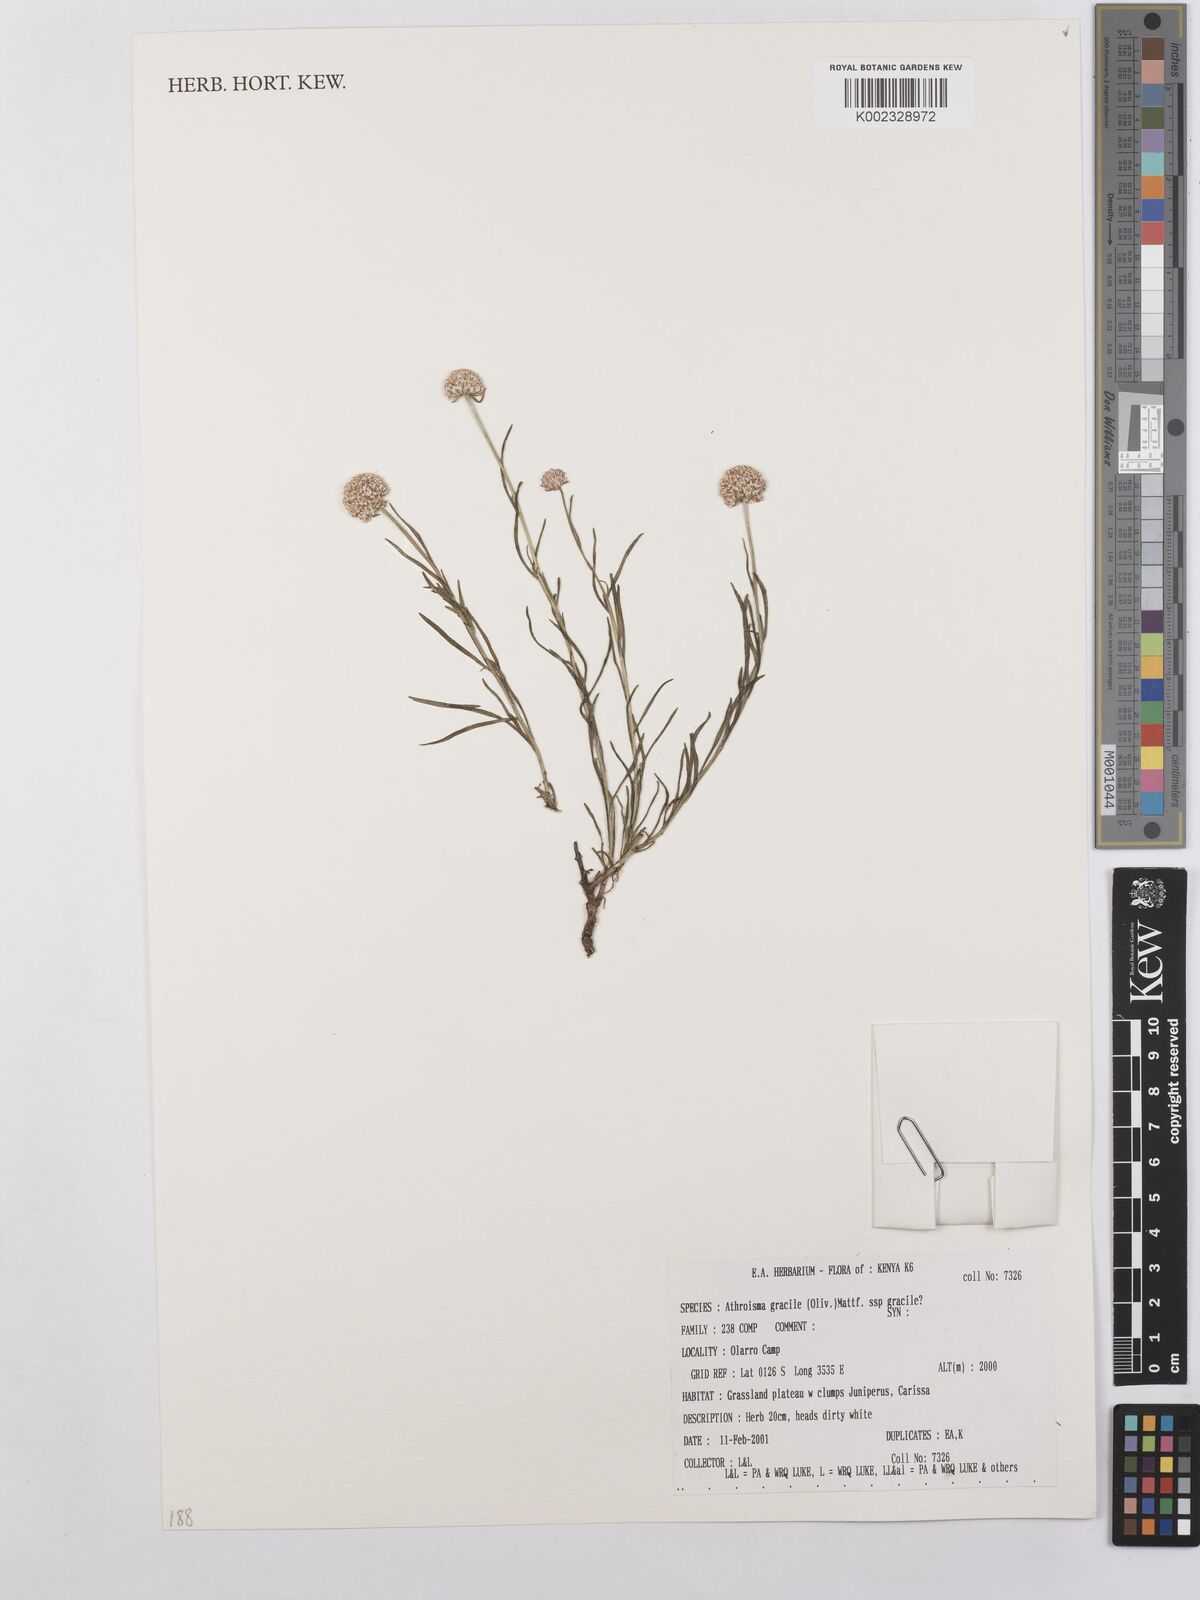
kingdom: Plantae
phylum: Tracheophyta
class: Magnoliopsida
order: Asterales
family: Asteraceae
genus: Athroisma
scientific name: Athroisma gracile
